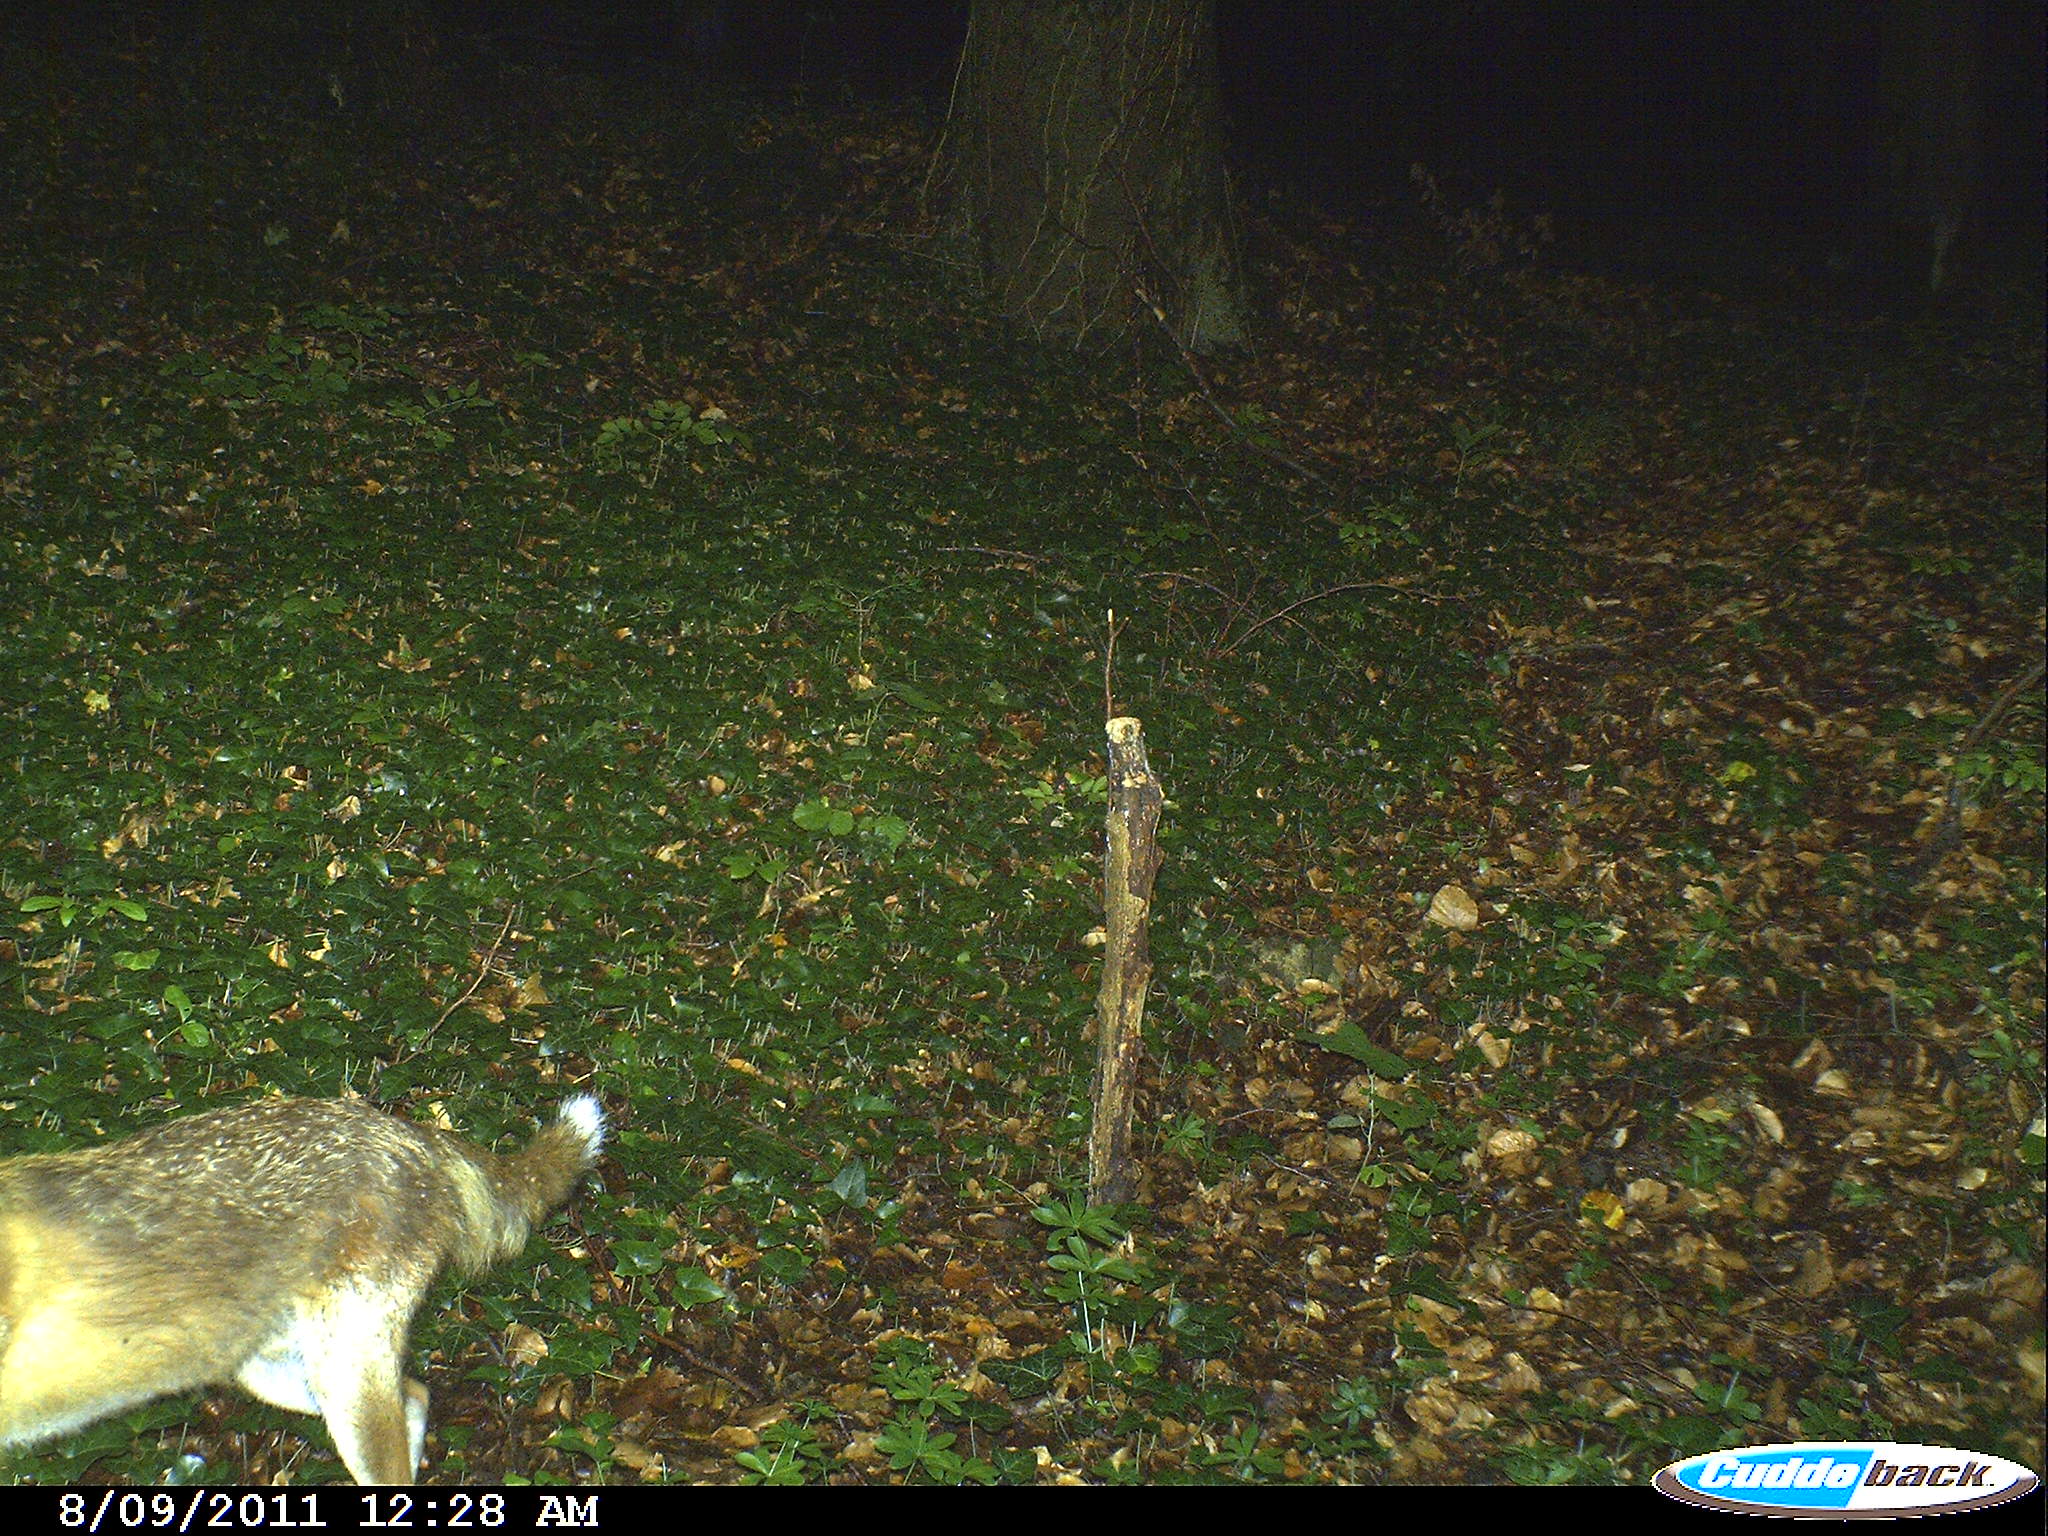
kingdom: Animalia
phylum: Chordata
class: Mammalia
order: Carnivora
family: Canidae
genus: Vulpes
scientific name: Vulpes vulpes
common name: Red fox
